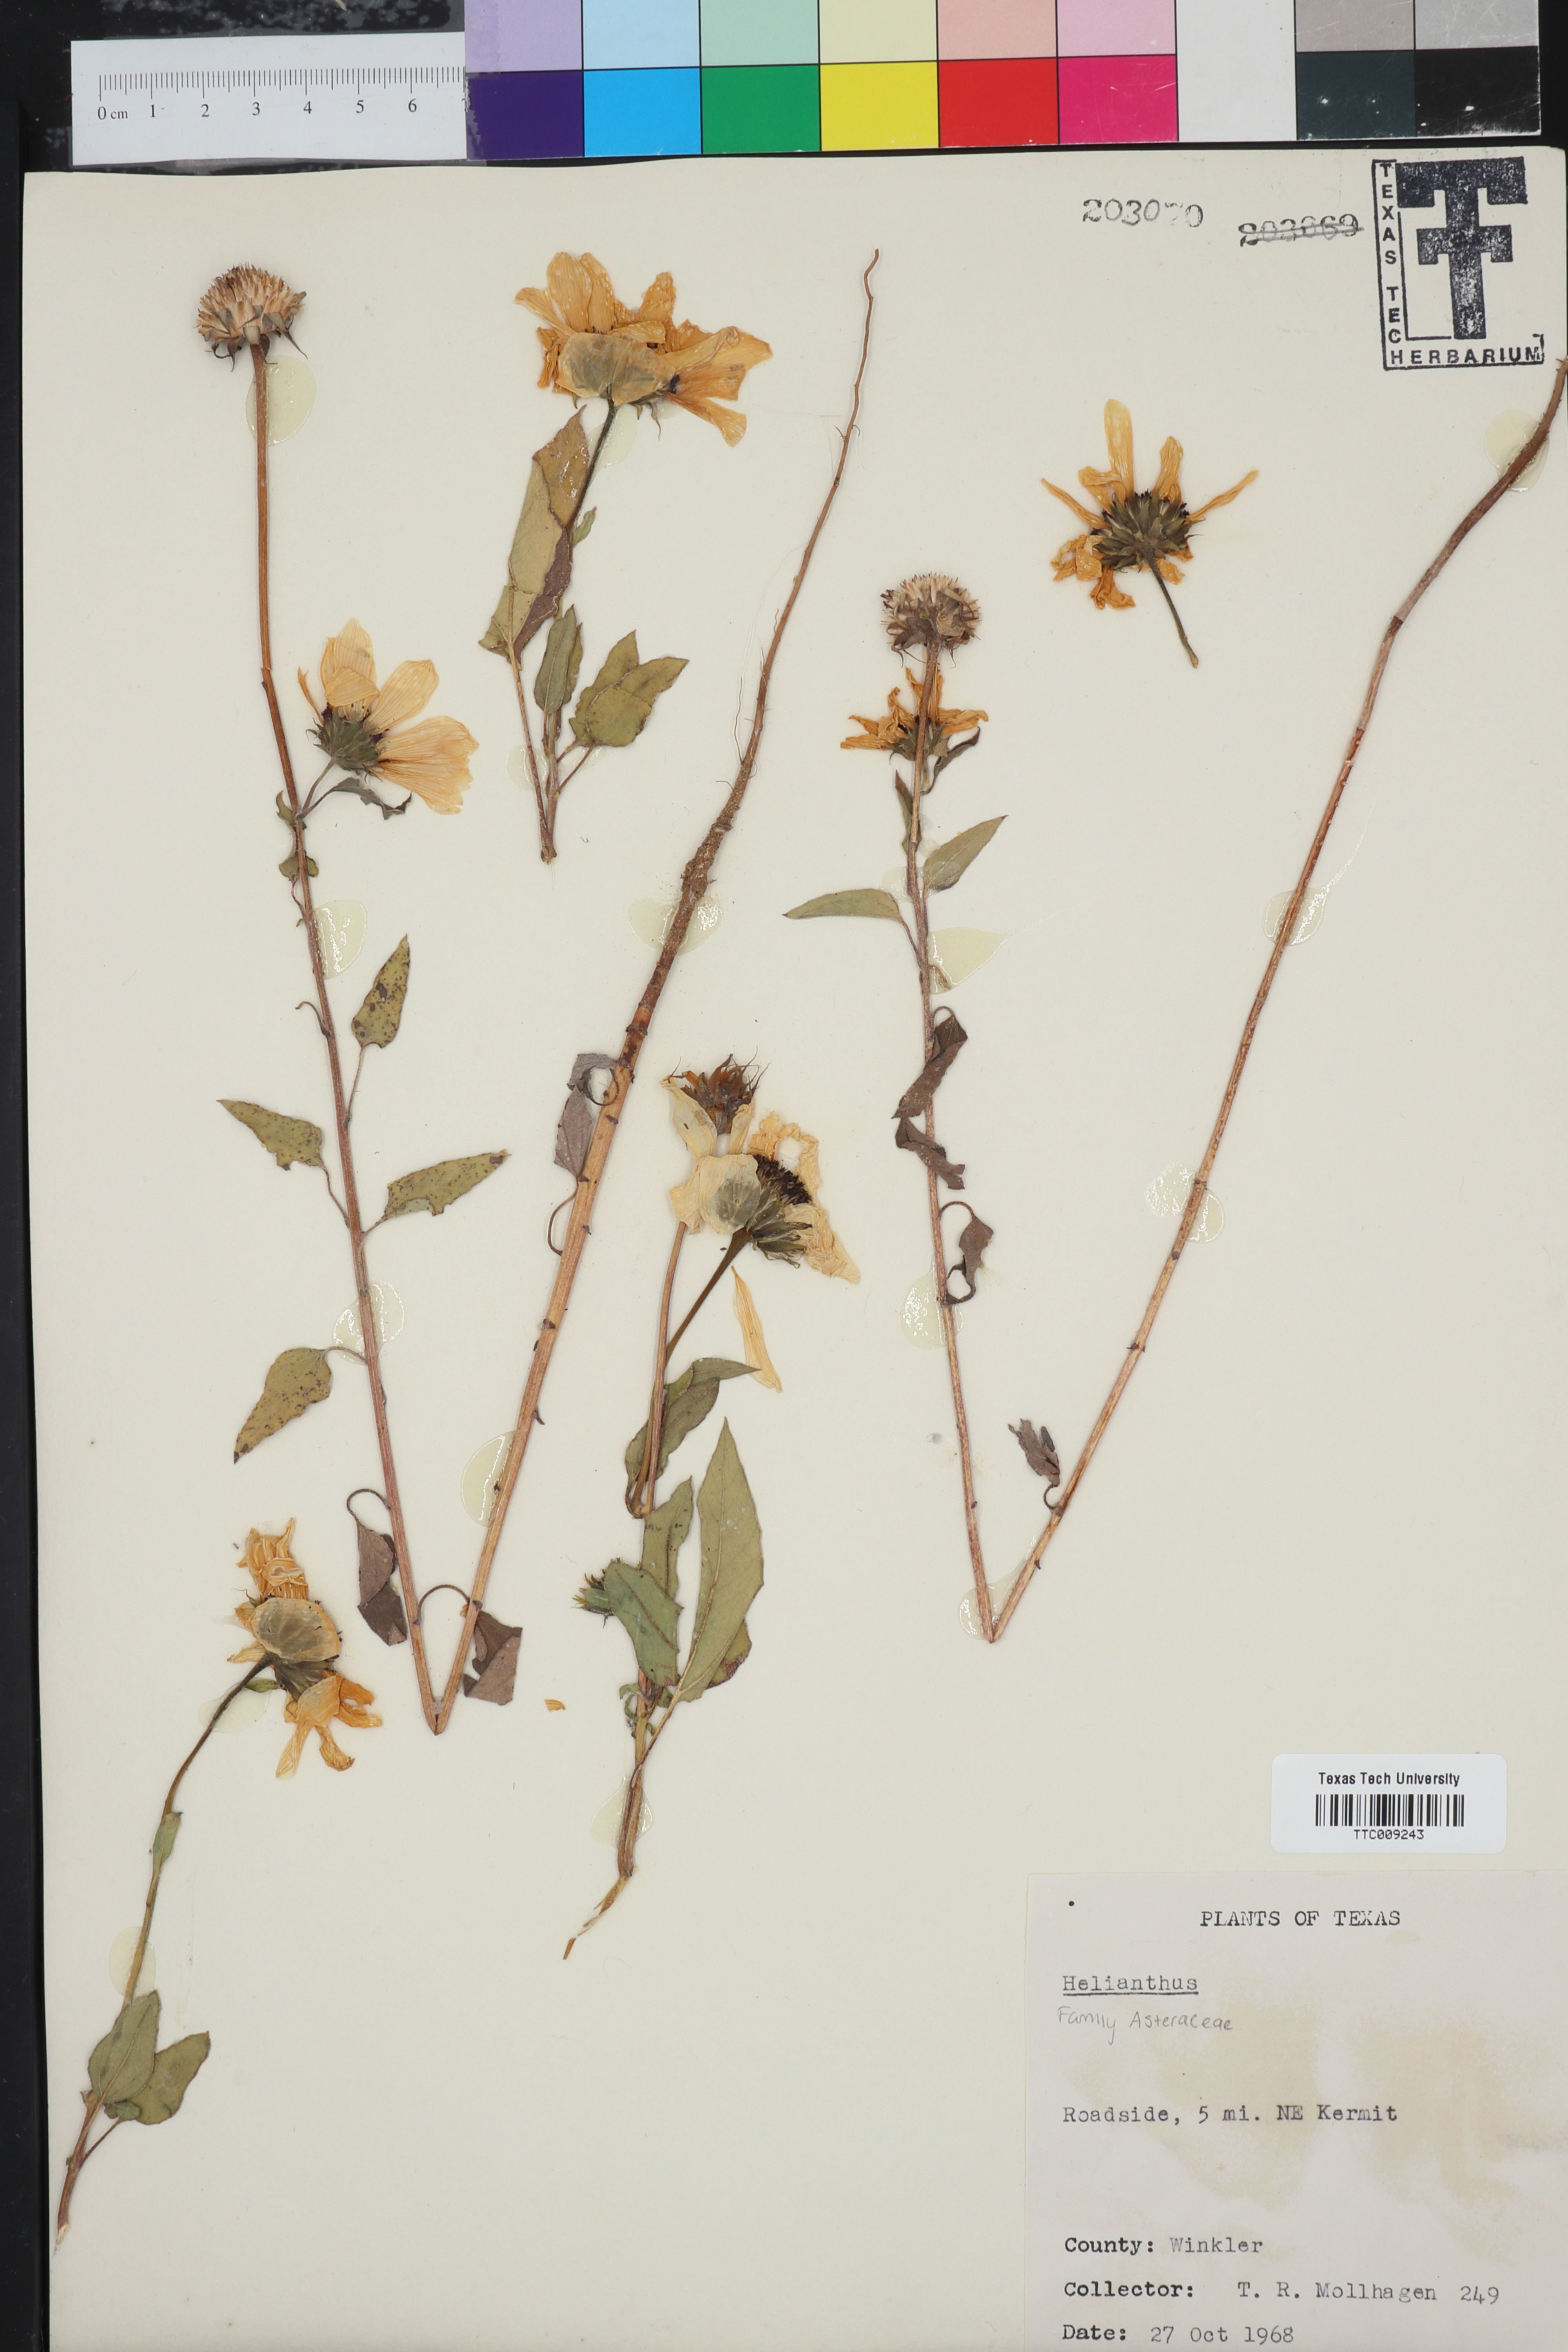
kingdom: Plantae
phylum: Tracheophyta
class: Magnoliopsida
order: Asterales
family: Asteraceae
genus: Helianthus
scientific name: Helianthus
